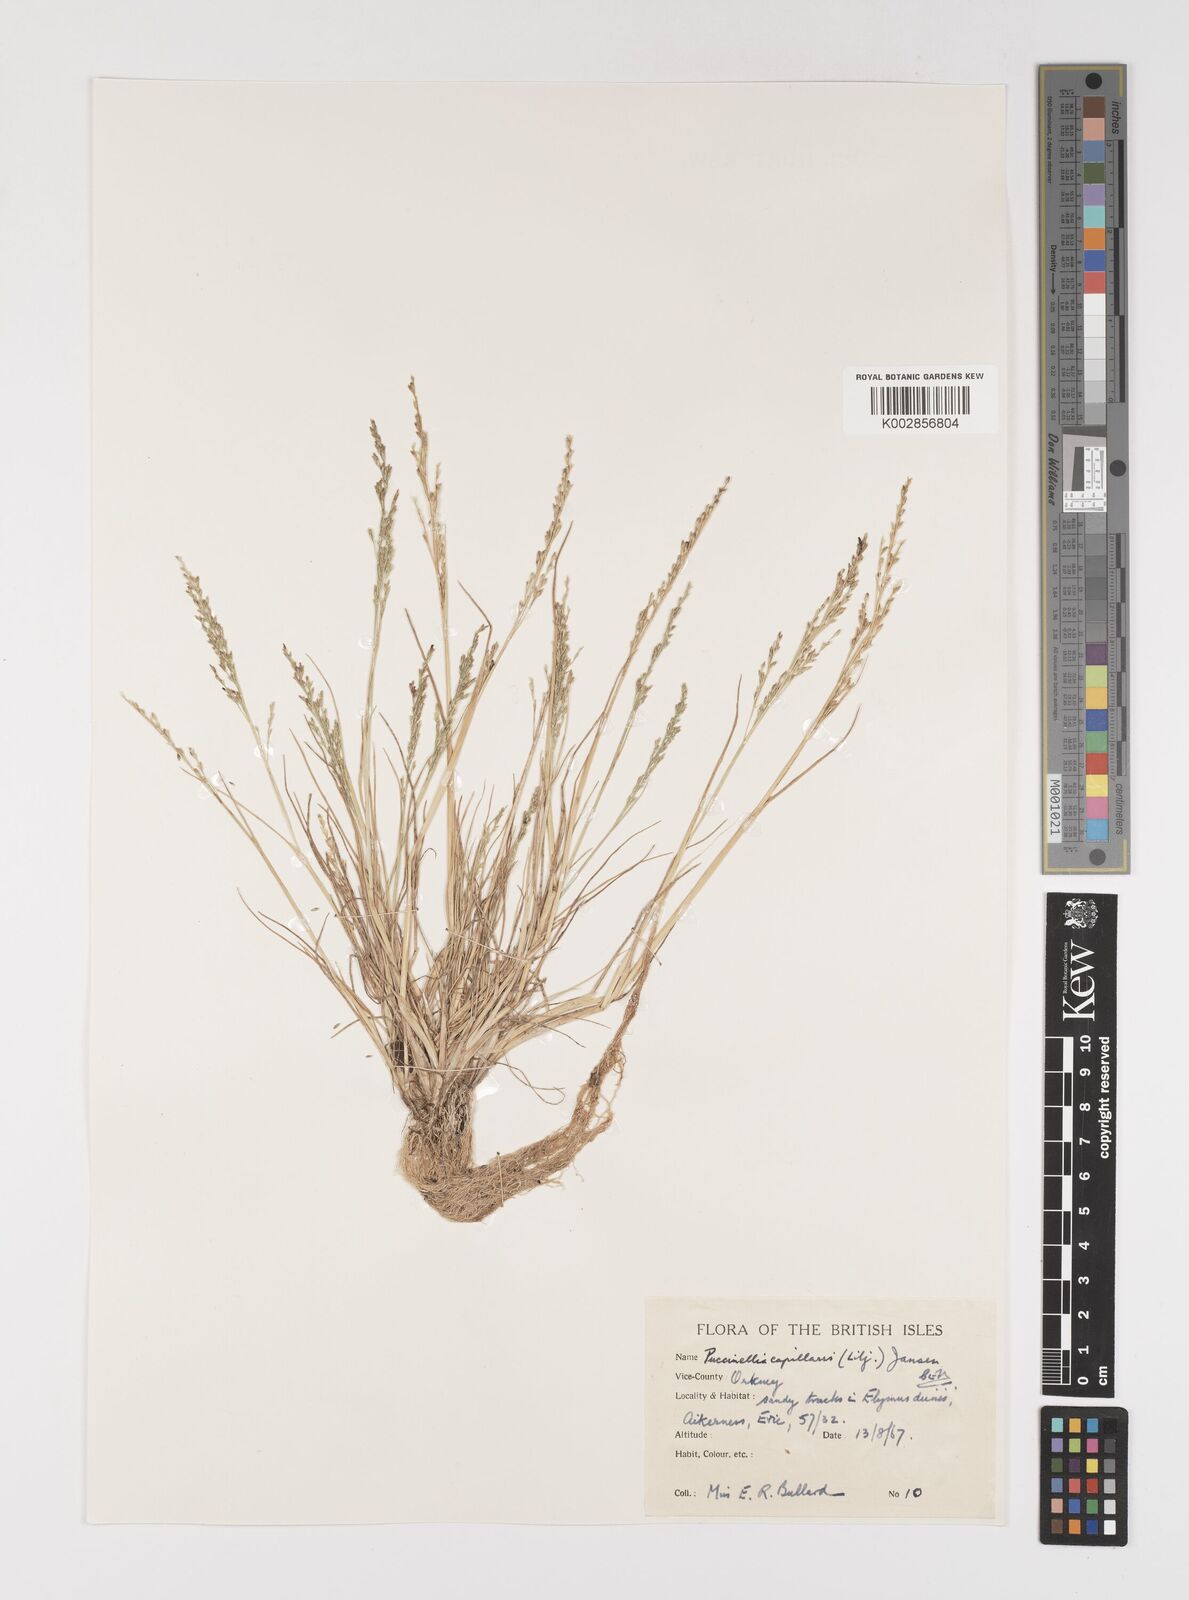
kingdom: Plantae
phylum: Tracheophyta
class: Liliopsida
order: Poales
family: Poaceae
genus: Puccinellia
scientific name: Puccinellia distans
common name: Weeping alkaligrass
